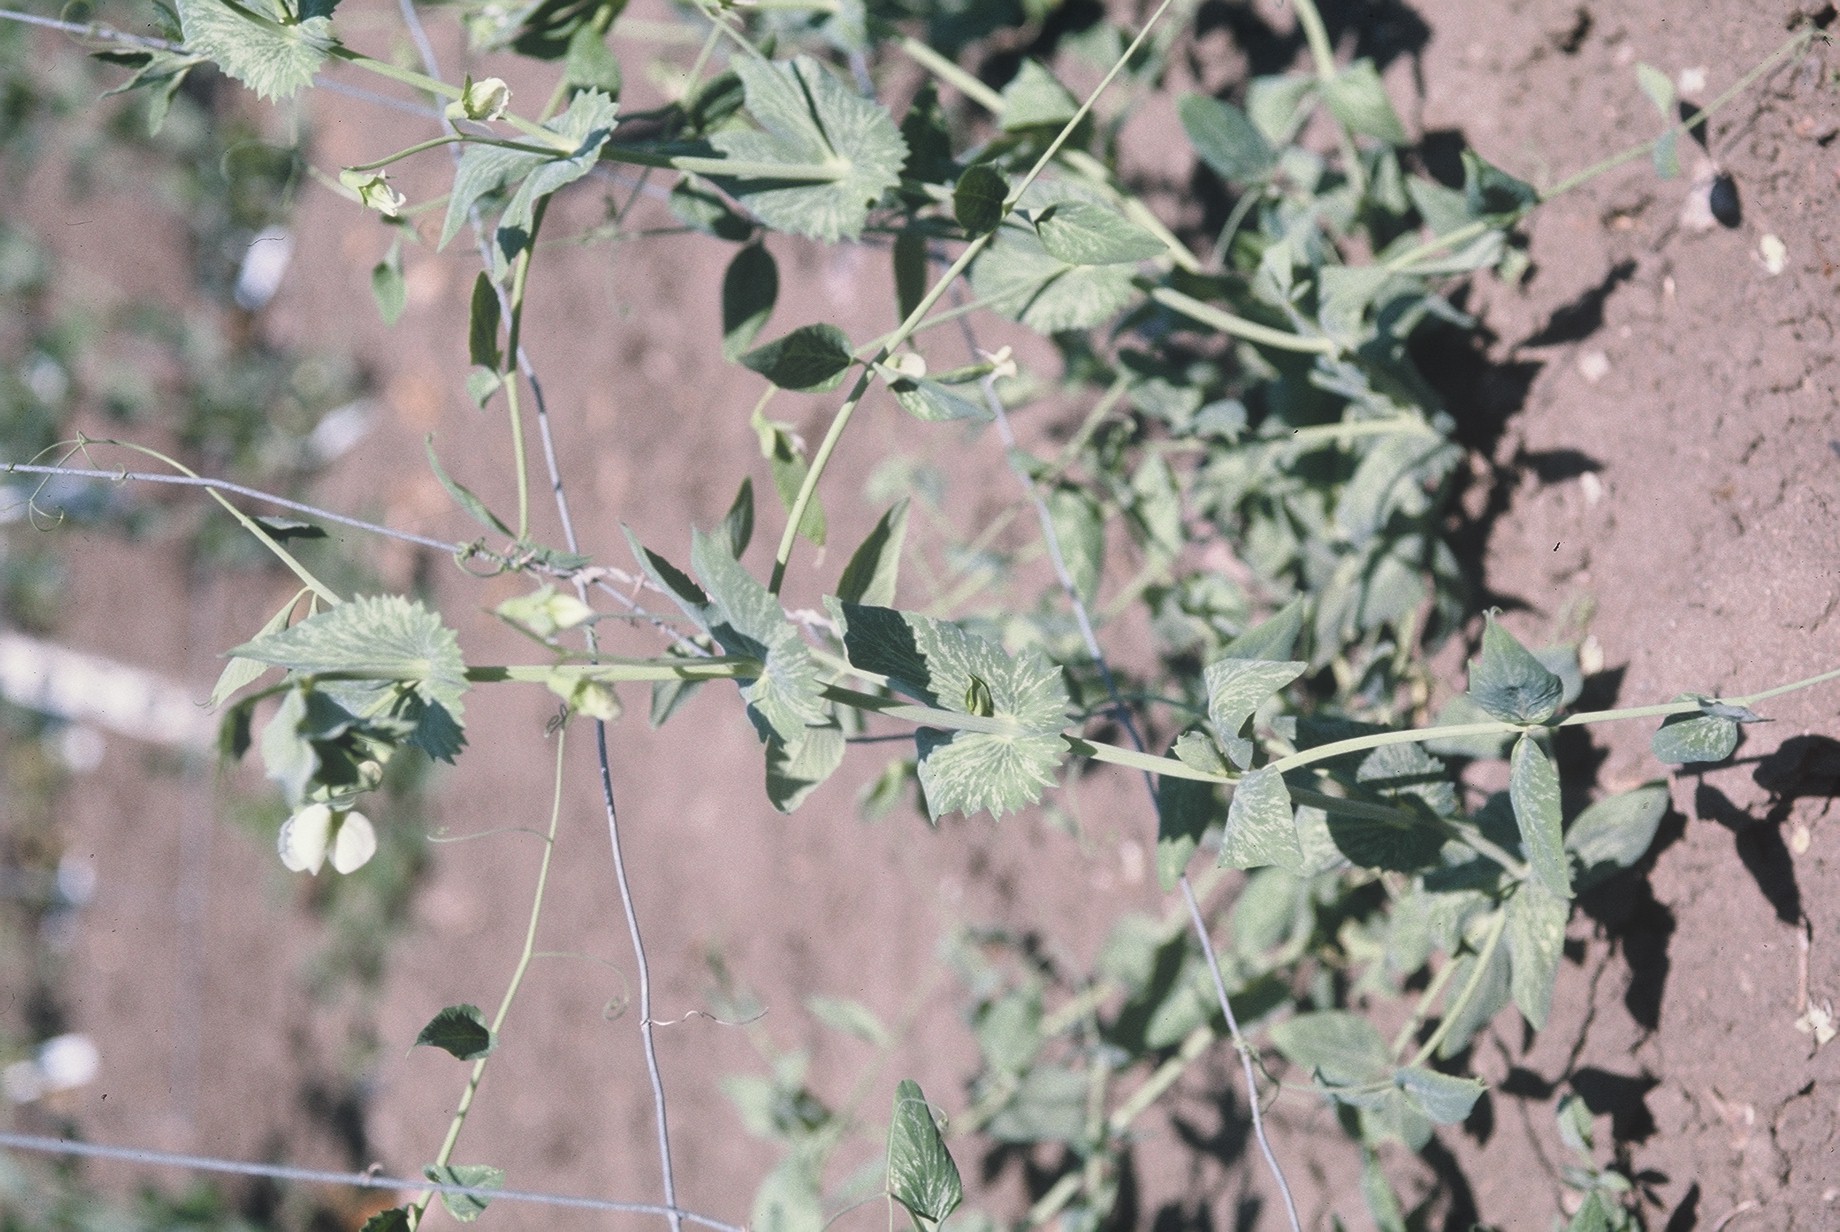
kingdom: Plantae
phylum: Tracheophyta
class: Magnoliopsida
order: Fabales
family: Fabaceae
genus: Lathyrus
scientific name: Lathyrus oleraceus
